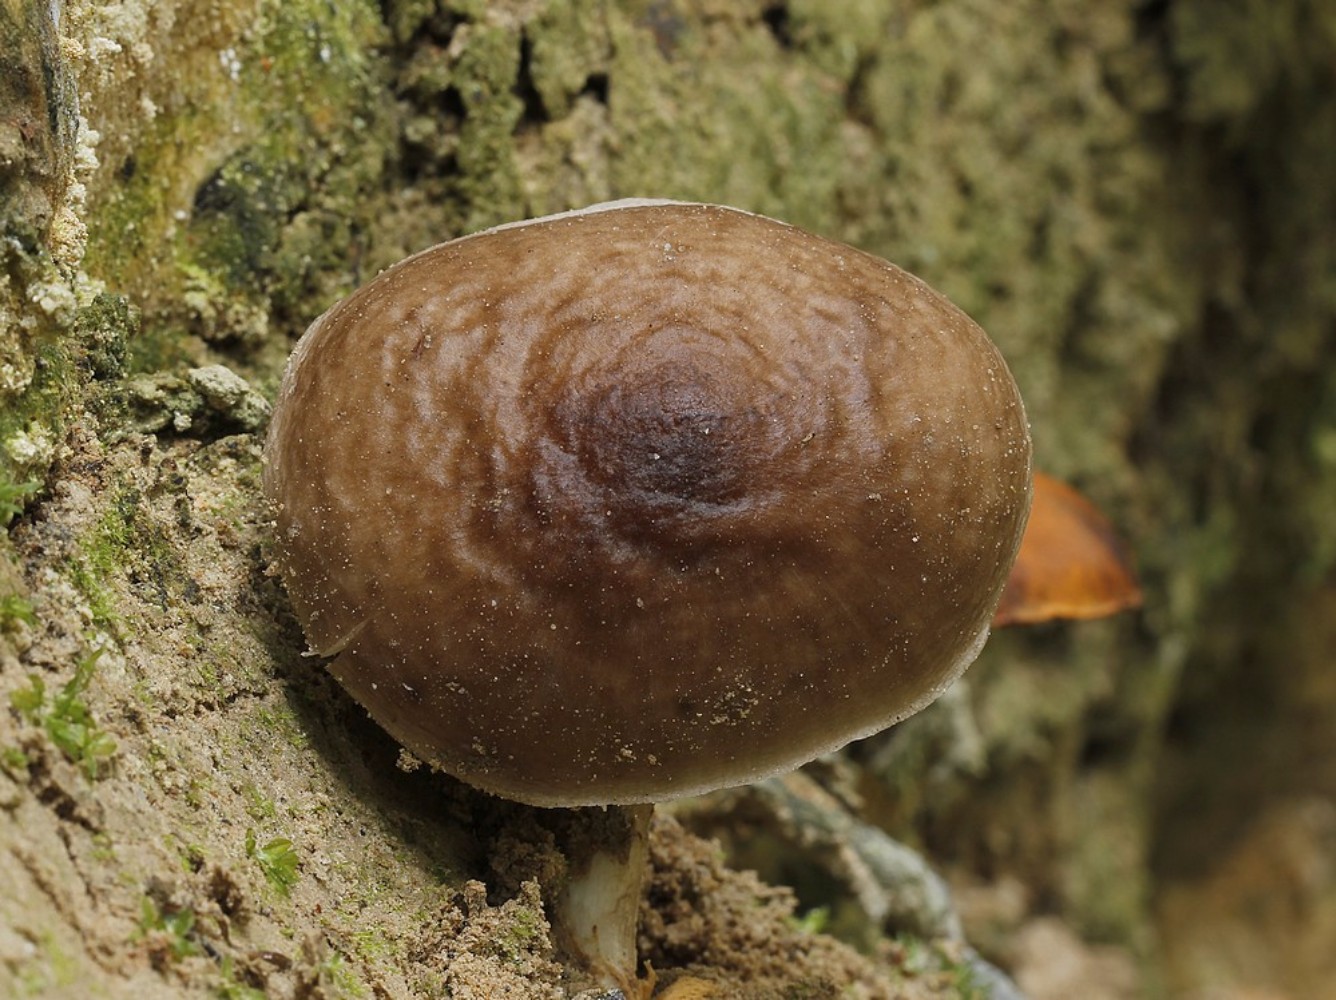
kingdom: Fungi
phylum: Basidiomycota
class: Agaricomycetes
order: Agaricales
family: Pluteaceae
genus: Pluteus
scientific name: Pluteus cervinus
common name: sodfarvet skærmhat
